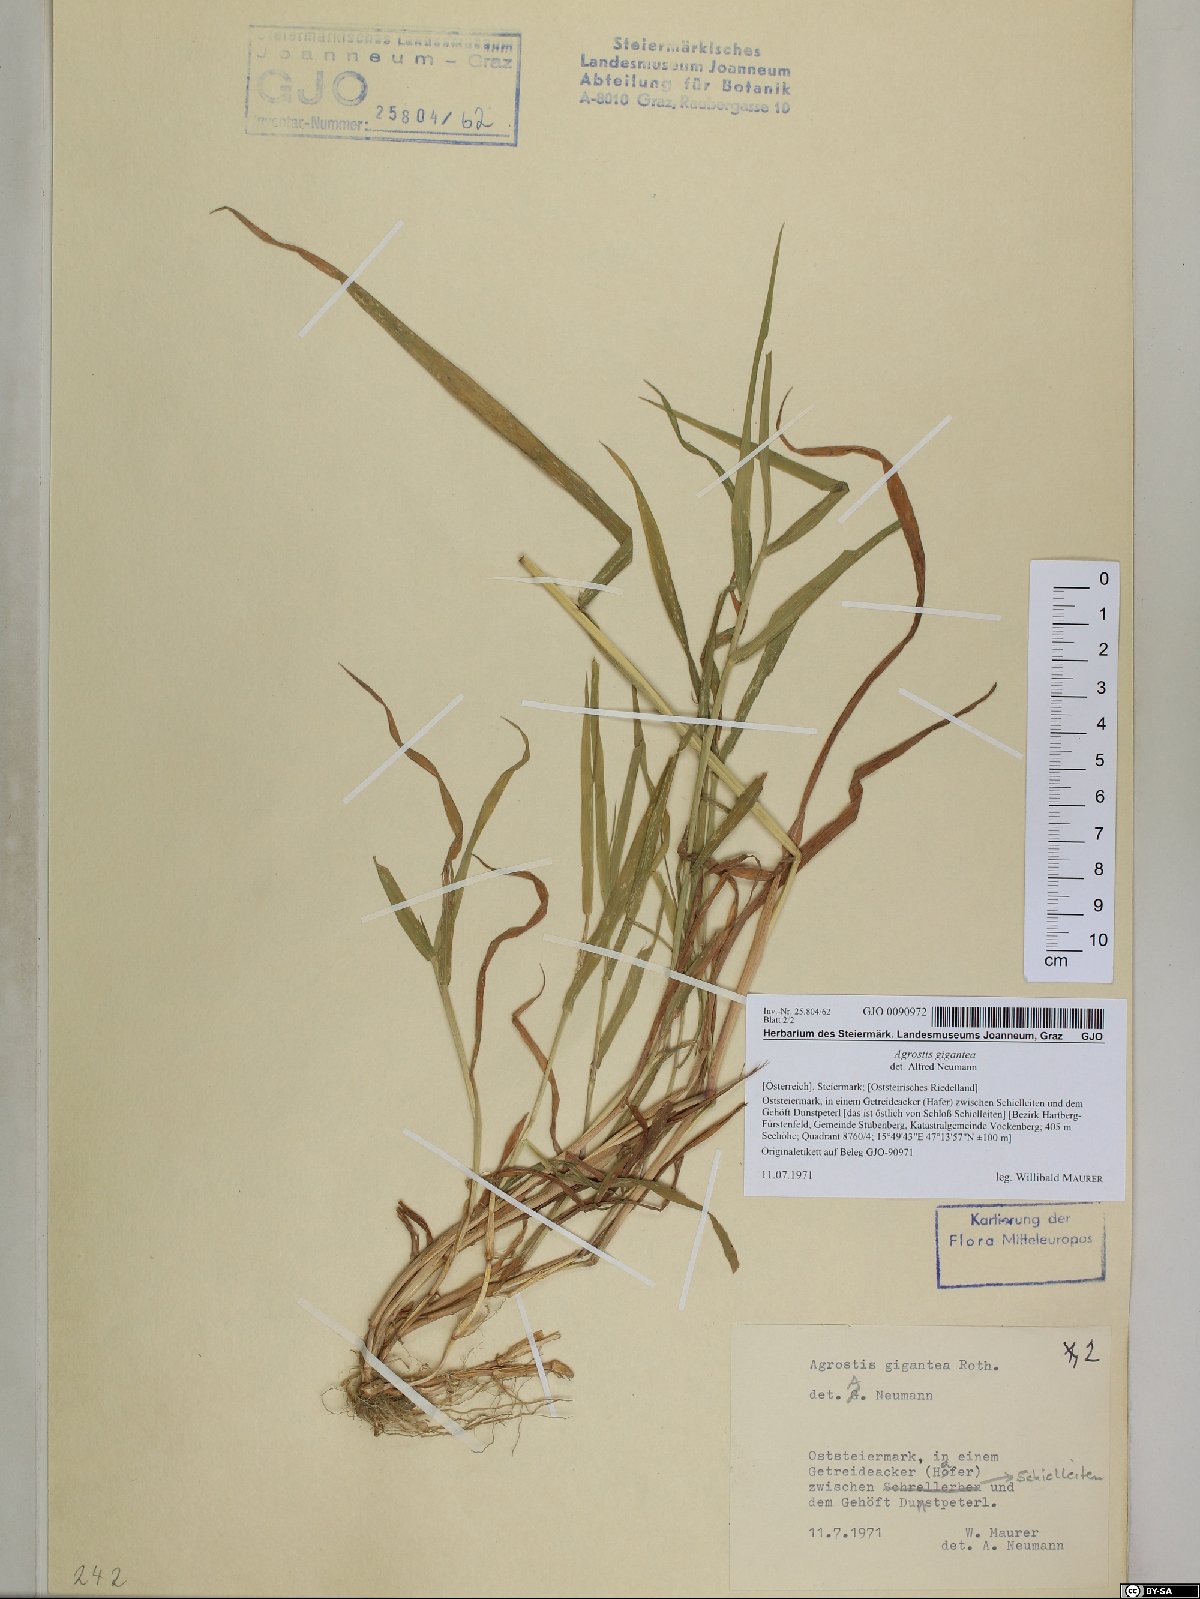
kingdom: Plantae
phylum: Tracheophyta
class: Liliopsida
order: Poales
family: Poaceae
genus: Agrostis
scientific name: Agrostis gigantea
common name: Black bent
